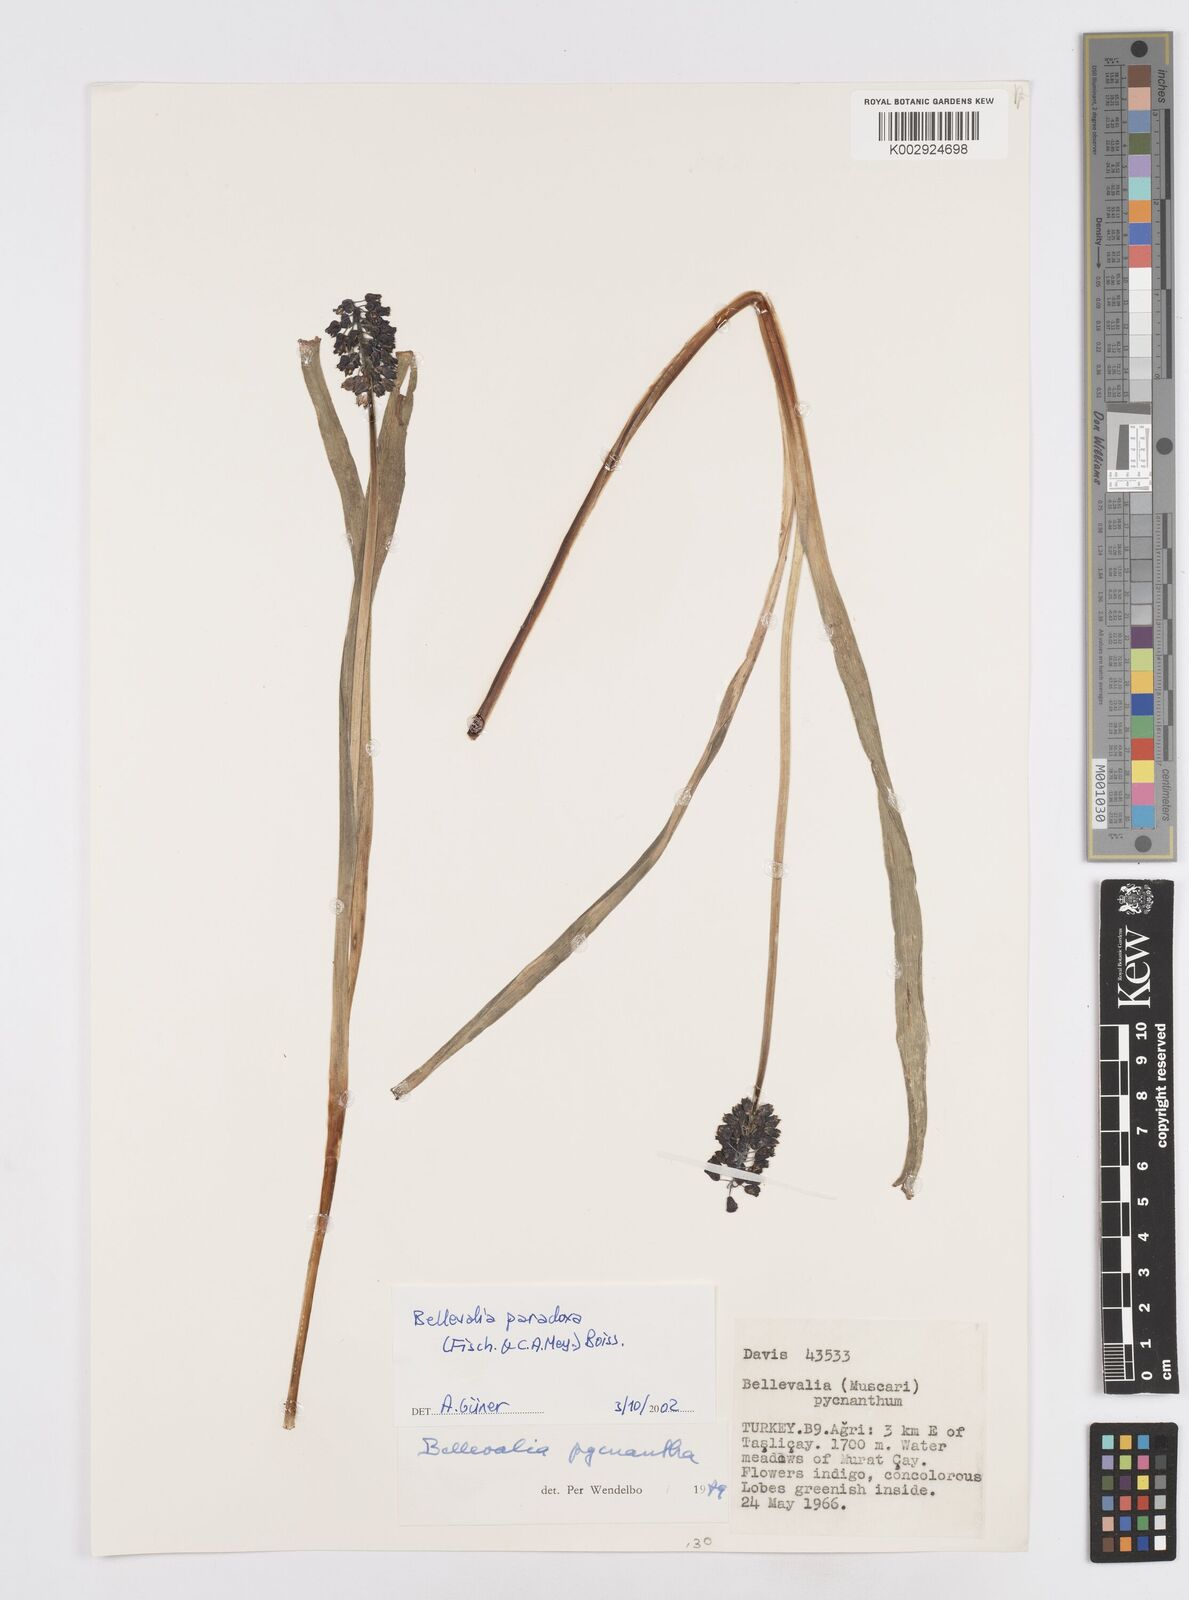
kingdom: Plantae
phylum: Tracheophyta
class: Liliopsida
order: Asparagales
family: Asparagaceae
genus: Bellevalia
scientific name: Bellevalia paradoxa
